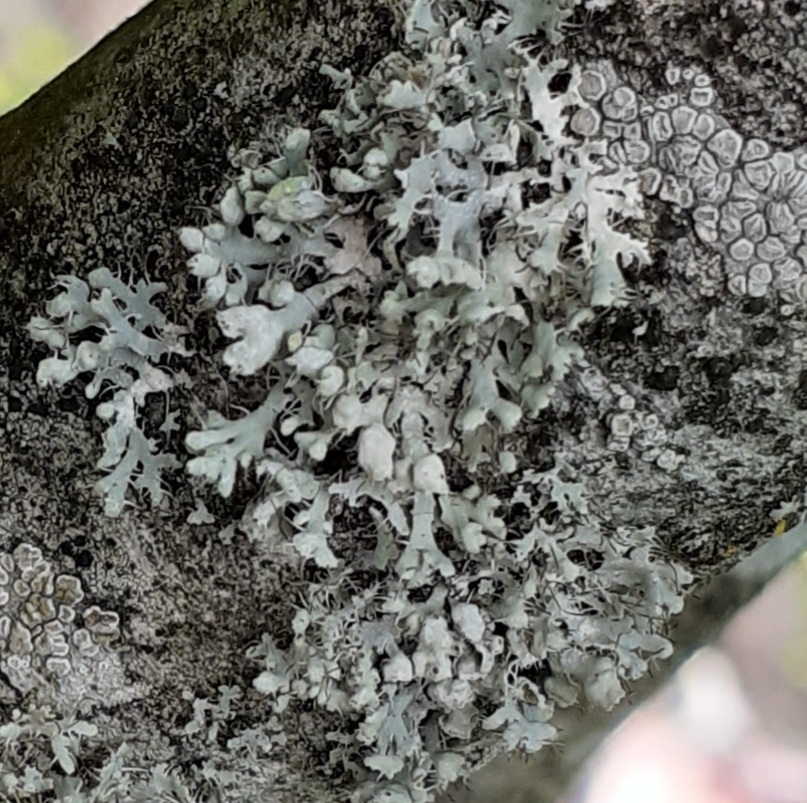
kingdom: Fungi
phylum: Ascomycota
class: Lecanoromycetes
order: Caliciales
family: Physciaceae
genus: Physcia
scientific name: Physcia adscendens
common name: hætte-rosetlav
